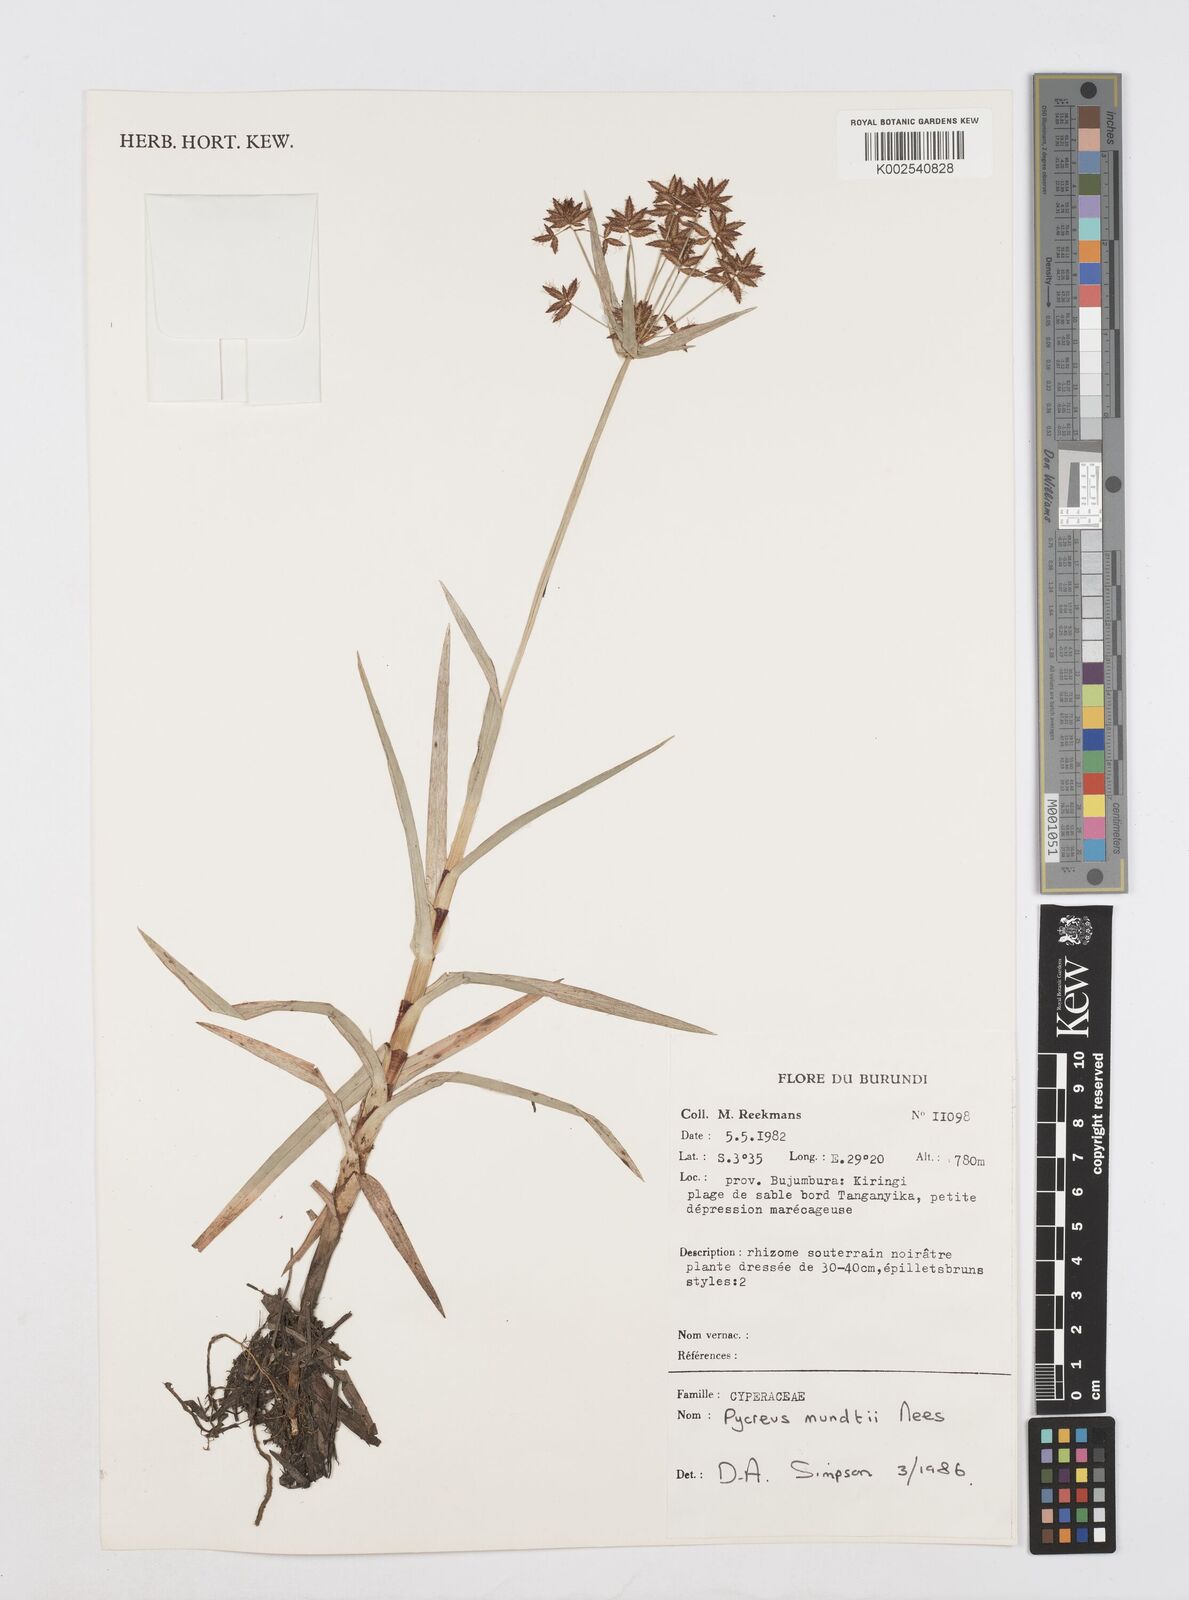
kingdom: Plantae
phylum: Tracheophyta
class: Liliopsida
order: Poales
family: Cyperaceae
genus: Cyperus
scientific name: Cyperus mundii
